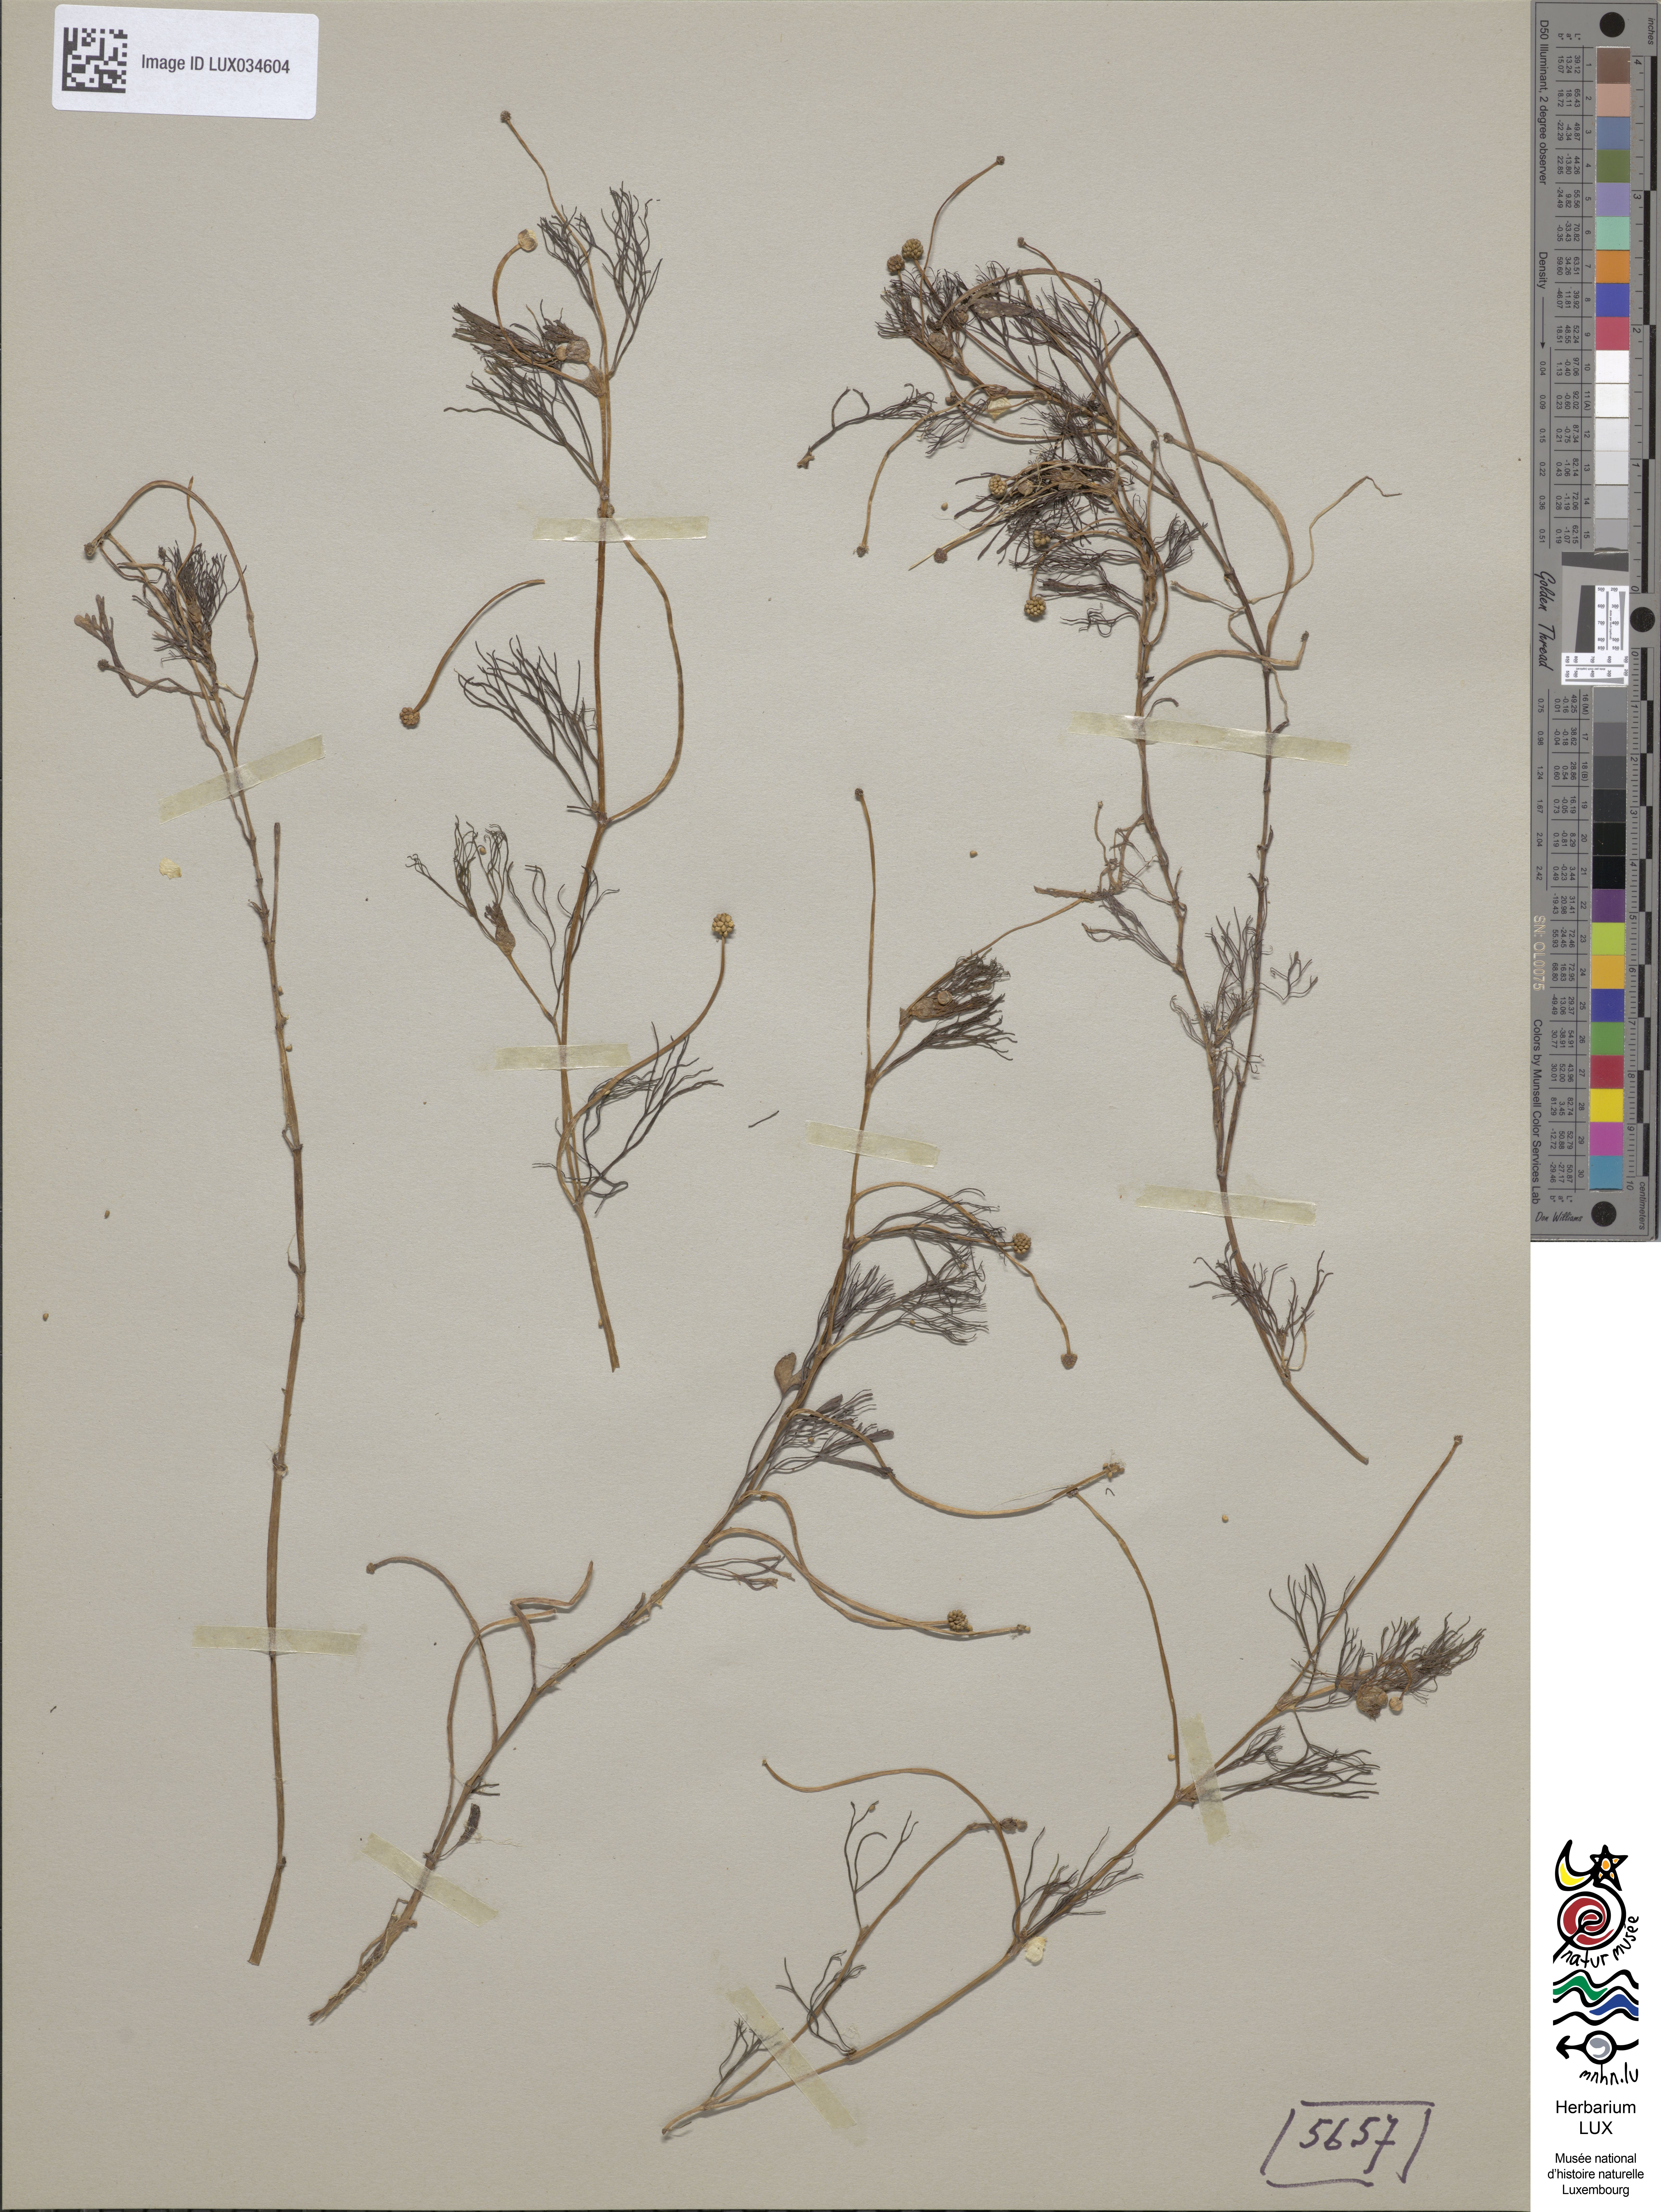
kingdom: Plantae
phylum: Tracheophyta
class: Magnoliopsida
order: Ranunculales
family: Ranunculaceae
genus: Ranunculus
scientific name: Ranunculus peltatus
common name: Pond water-crowfoot
